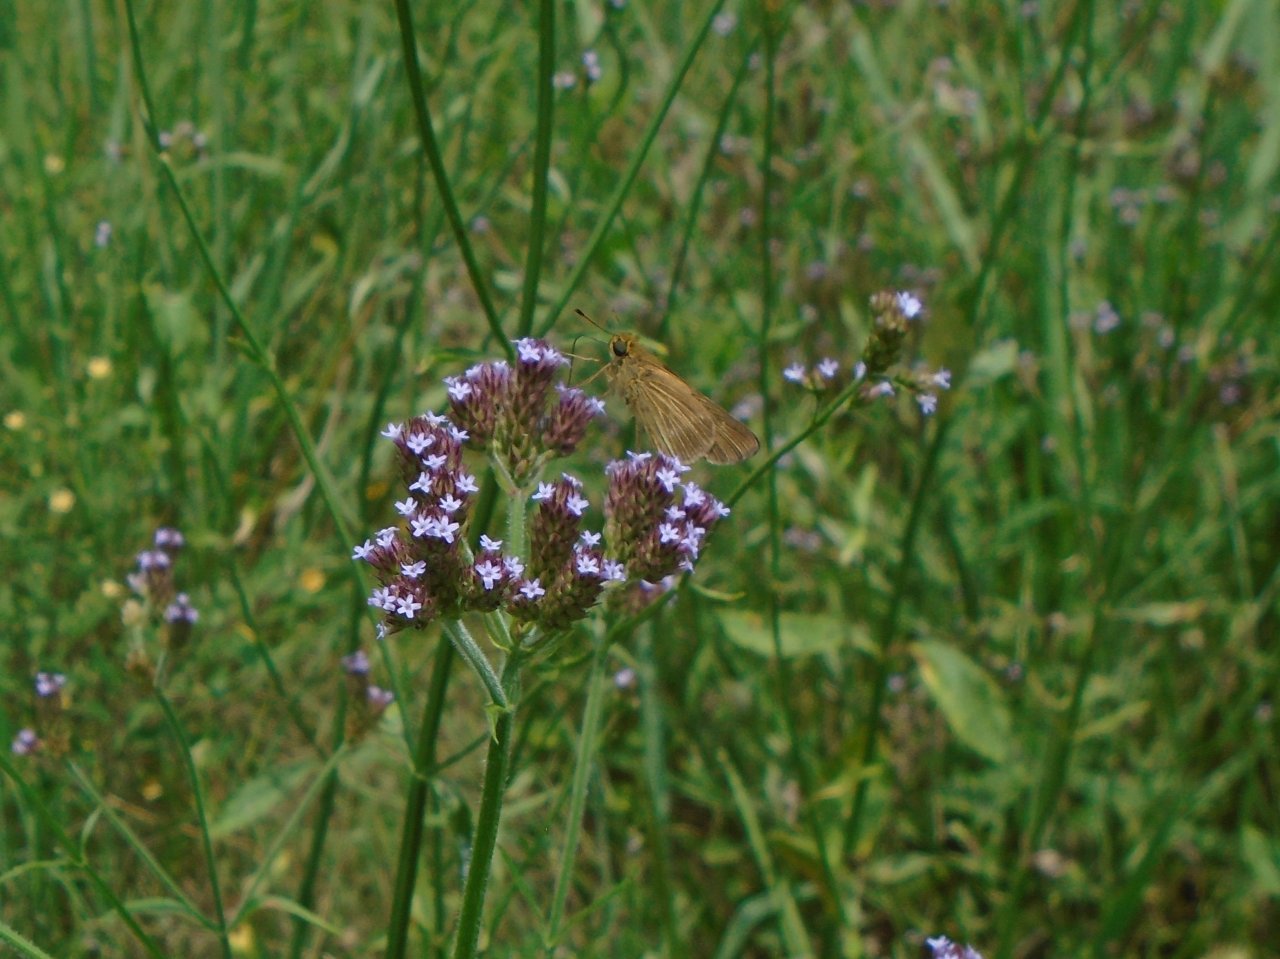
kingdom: Animalia
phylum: Arthropoda
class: Insecta
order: Lepidoptera
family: Hesperiidae
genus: Panoquina
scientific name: Panoquina ocola
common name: Ocola Skipper
